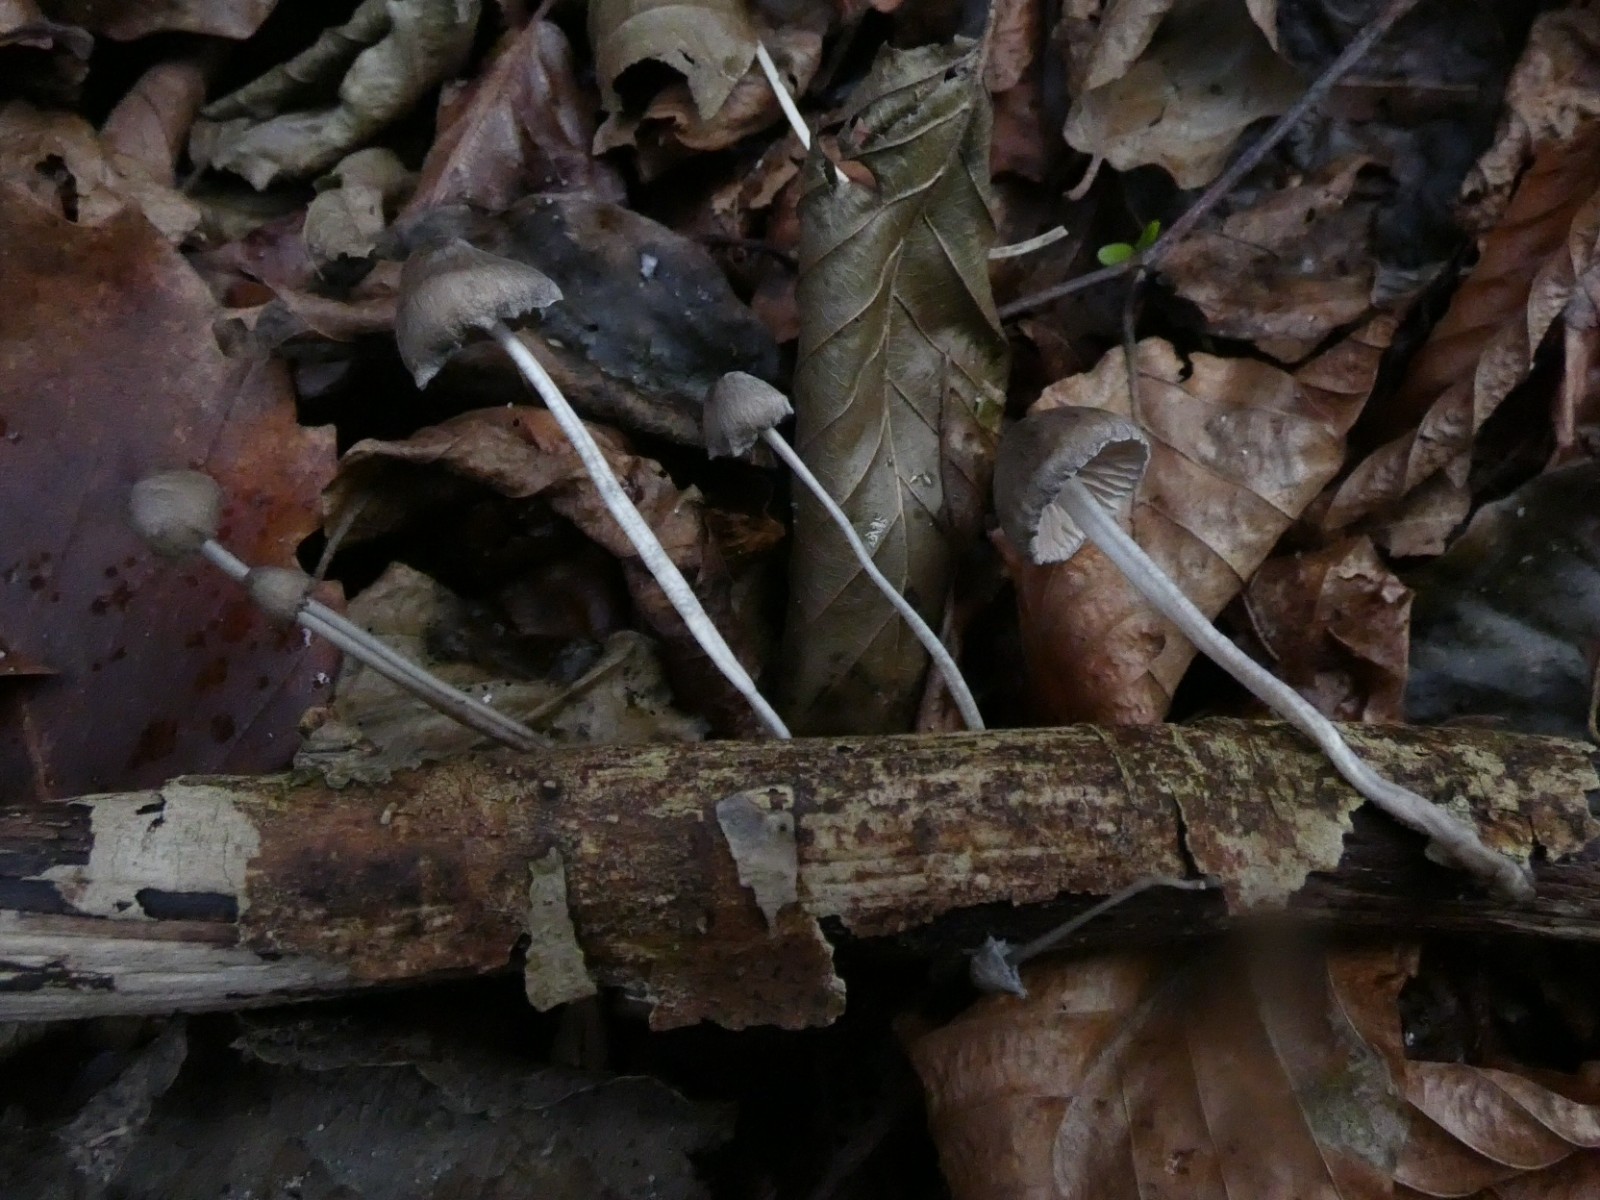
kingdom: Fungi
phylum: Basidiomycota
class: Agaricomycetes
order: Agaricales
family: Mycenaceae
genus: Mycena
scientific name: Mycena vitilis
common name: blankstokket huesvamp
